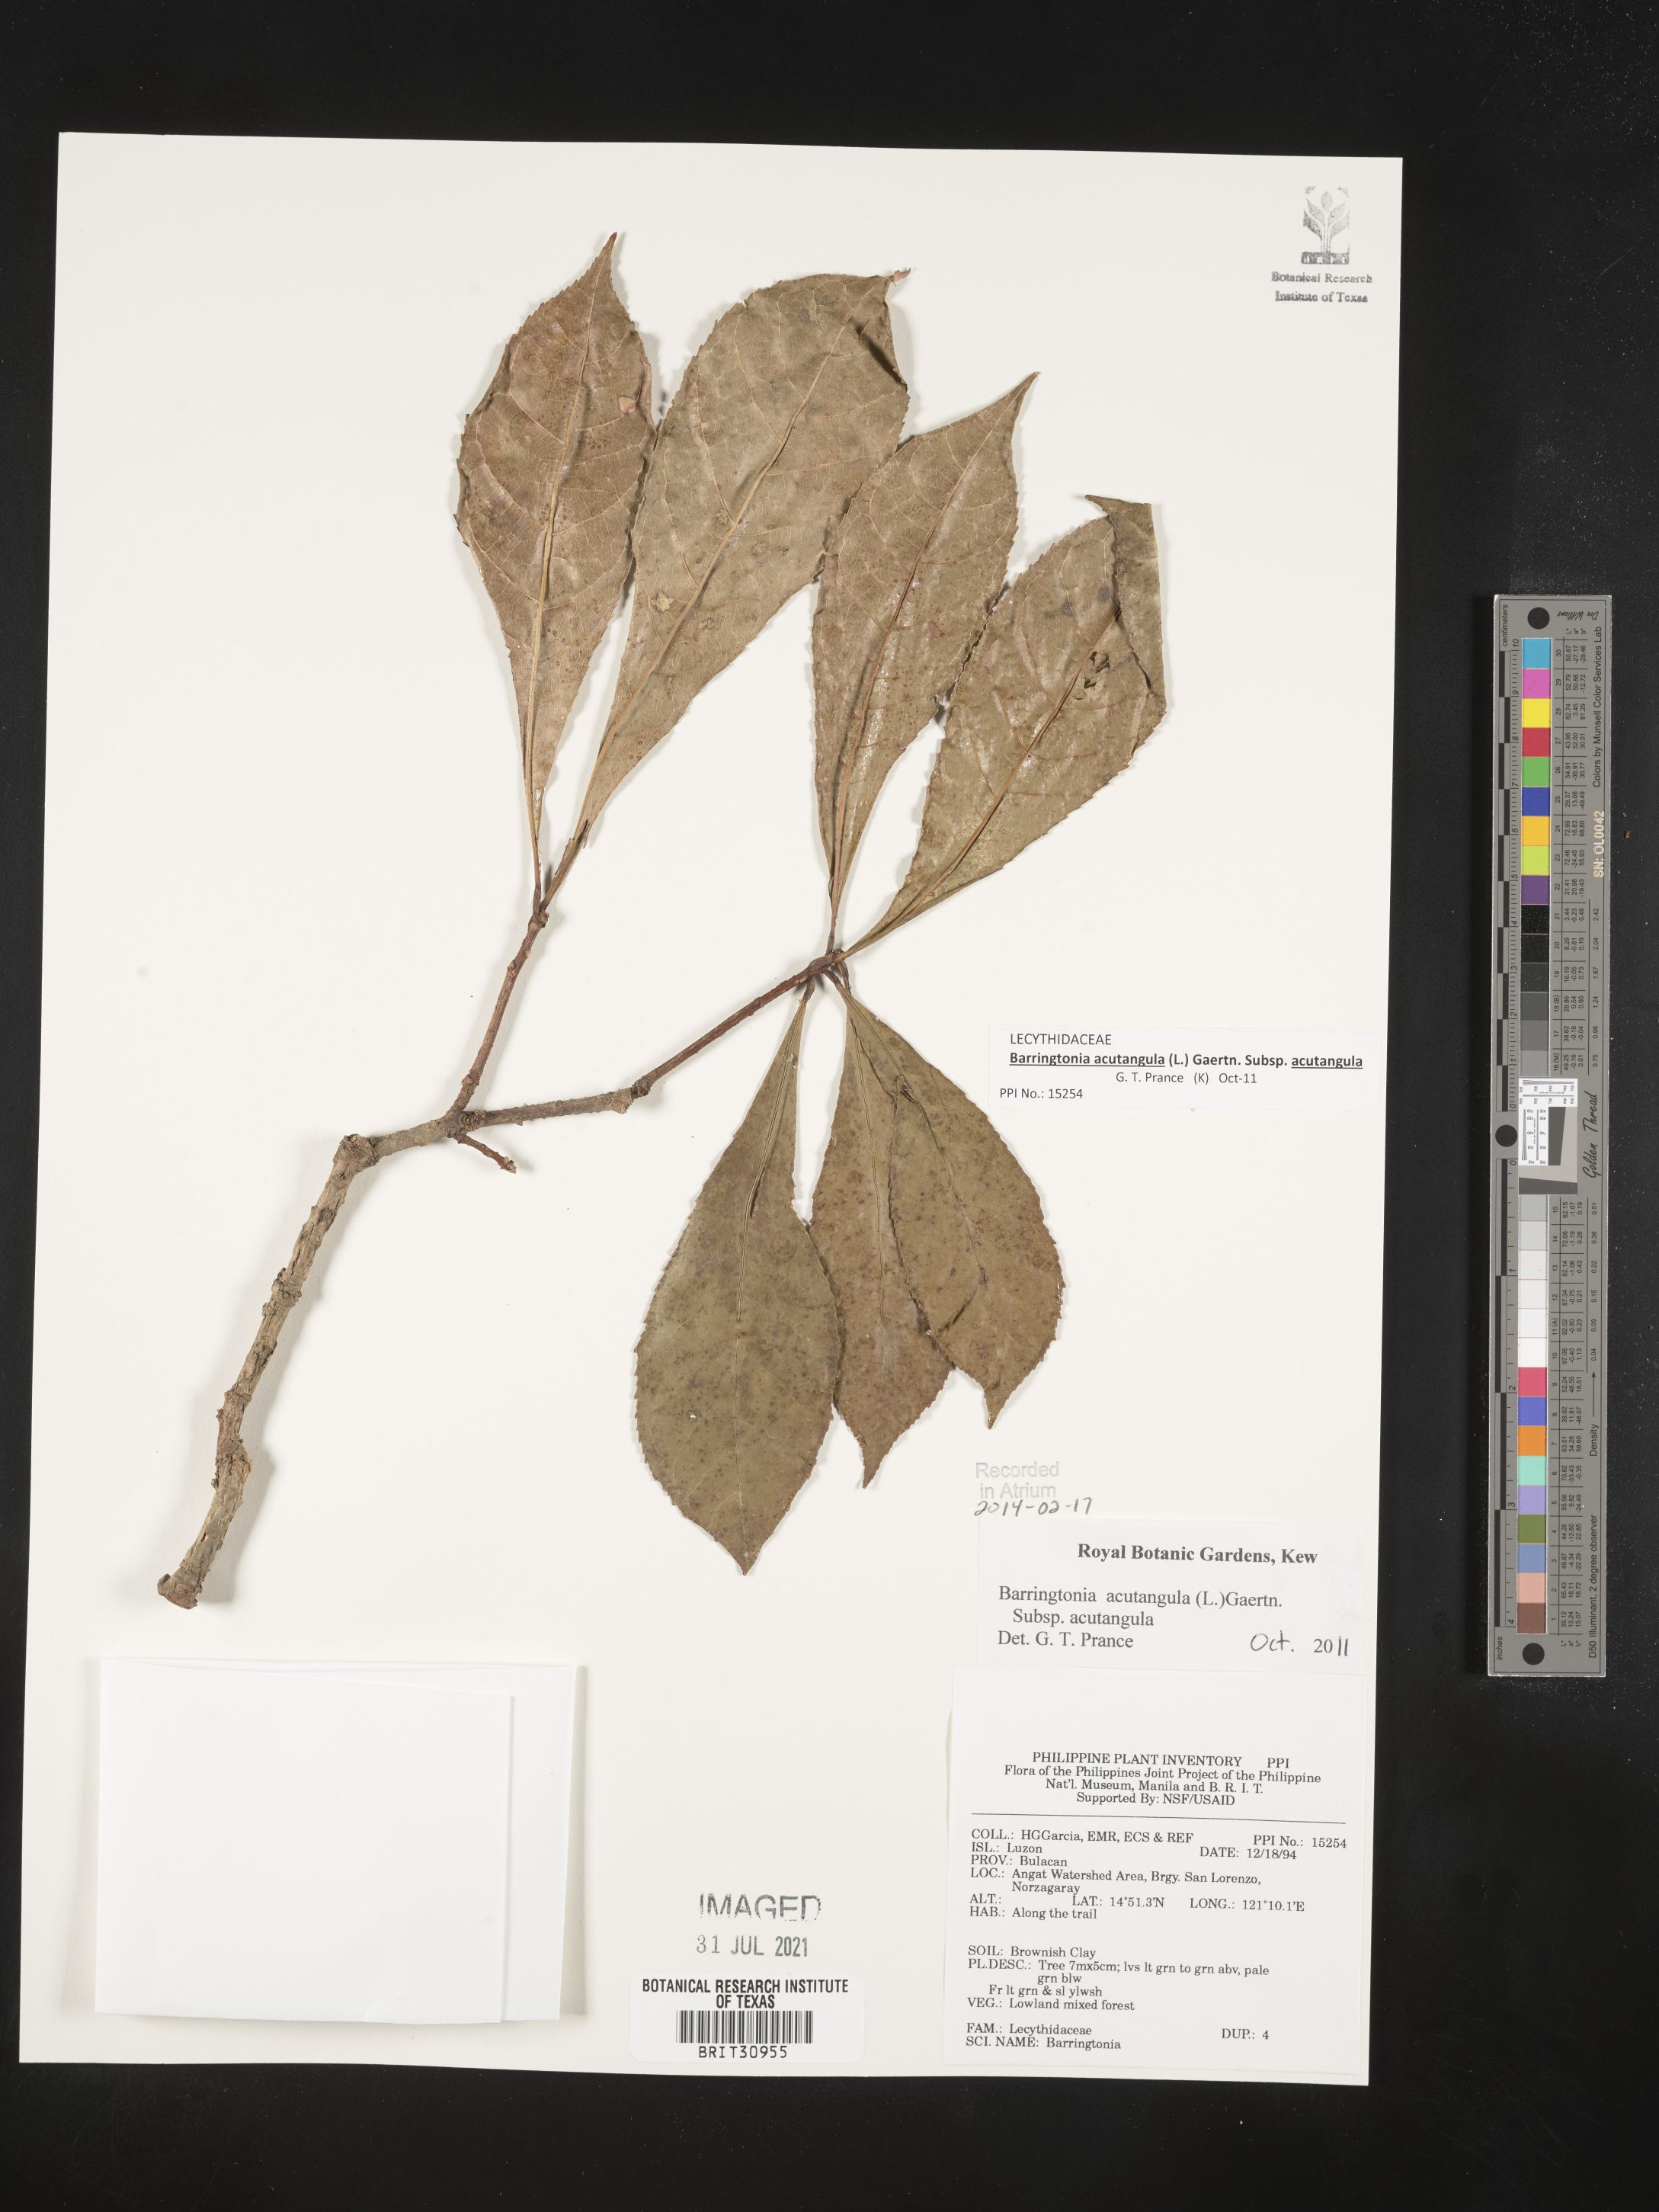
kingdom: Plantae
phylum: Tracheophyta
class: Magnoliopsida
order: Ericales
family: Lecythidaceae
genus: Barringtonia
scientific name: Barringtonia
